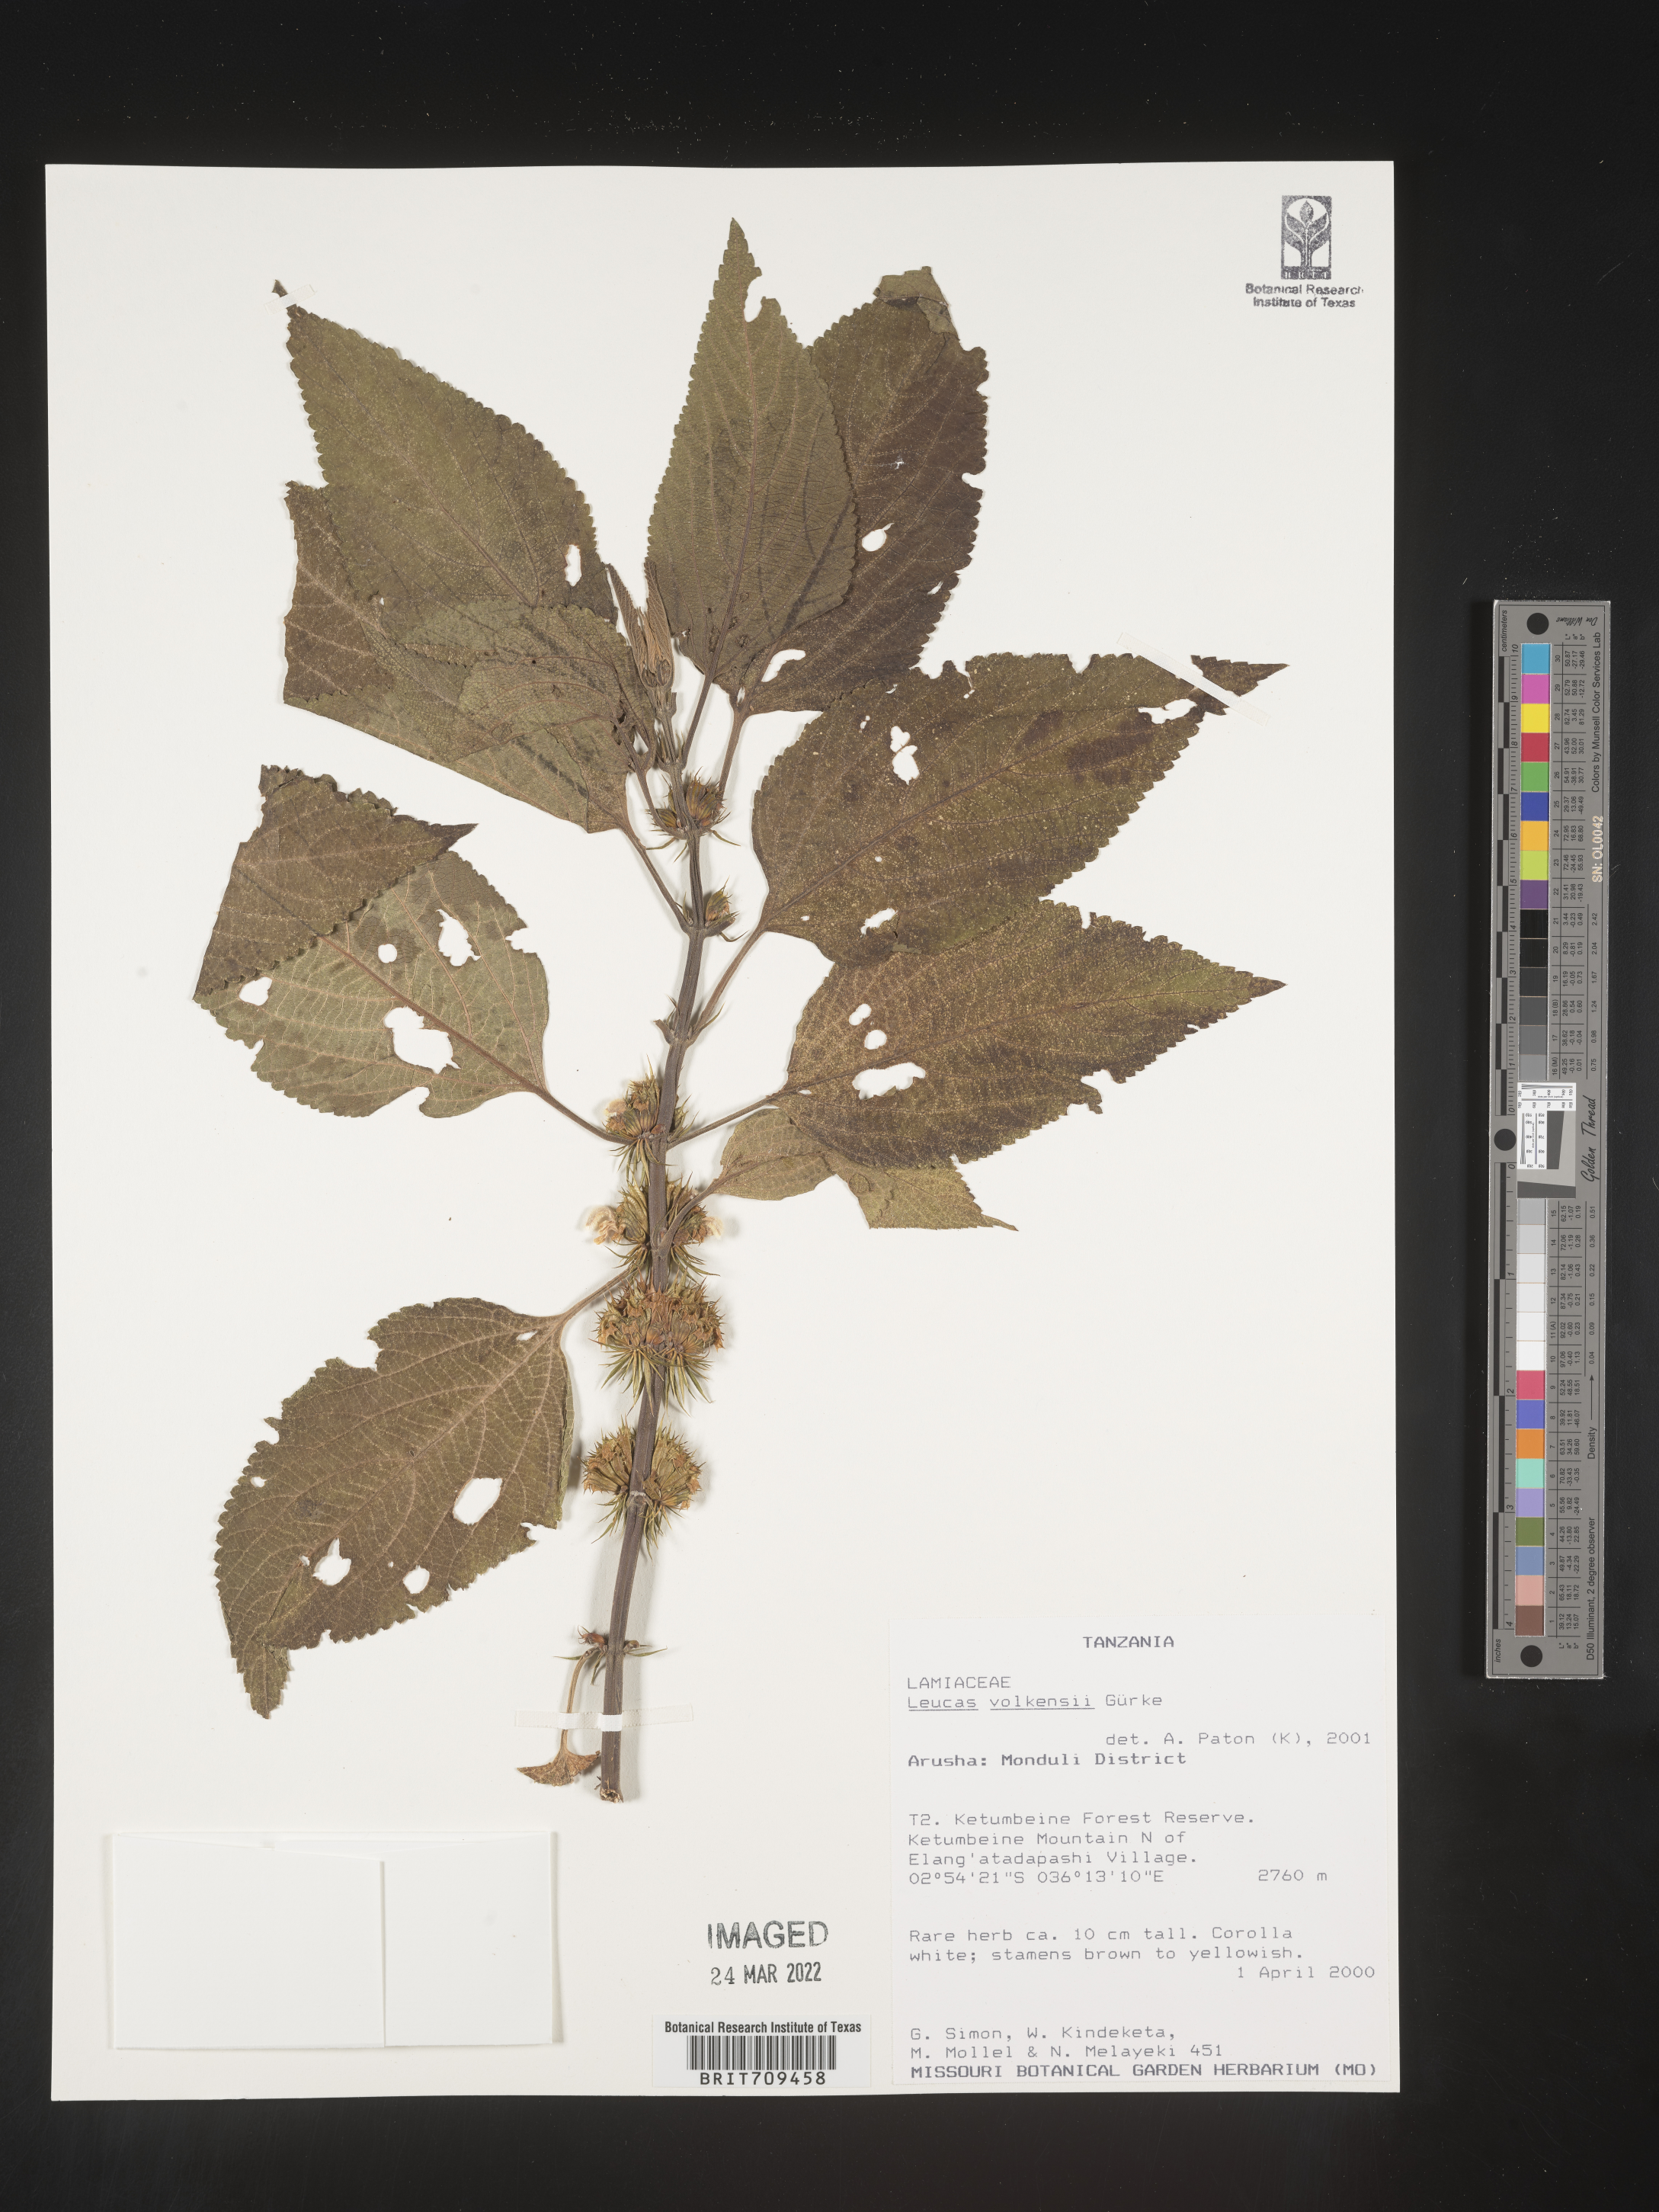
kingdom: Plantae
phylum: Tracheophyta
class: Magnoliopsida
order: Lamiales
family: Lamiaceae
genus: Leucas
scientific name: Leucas
